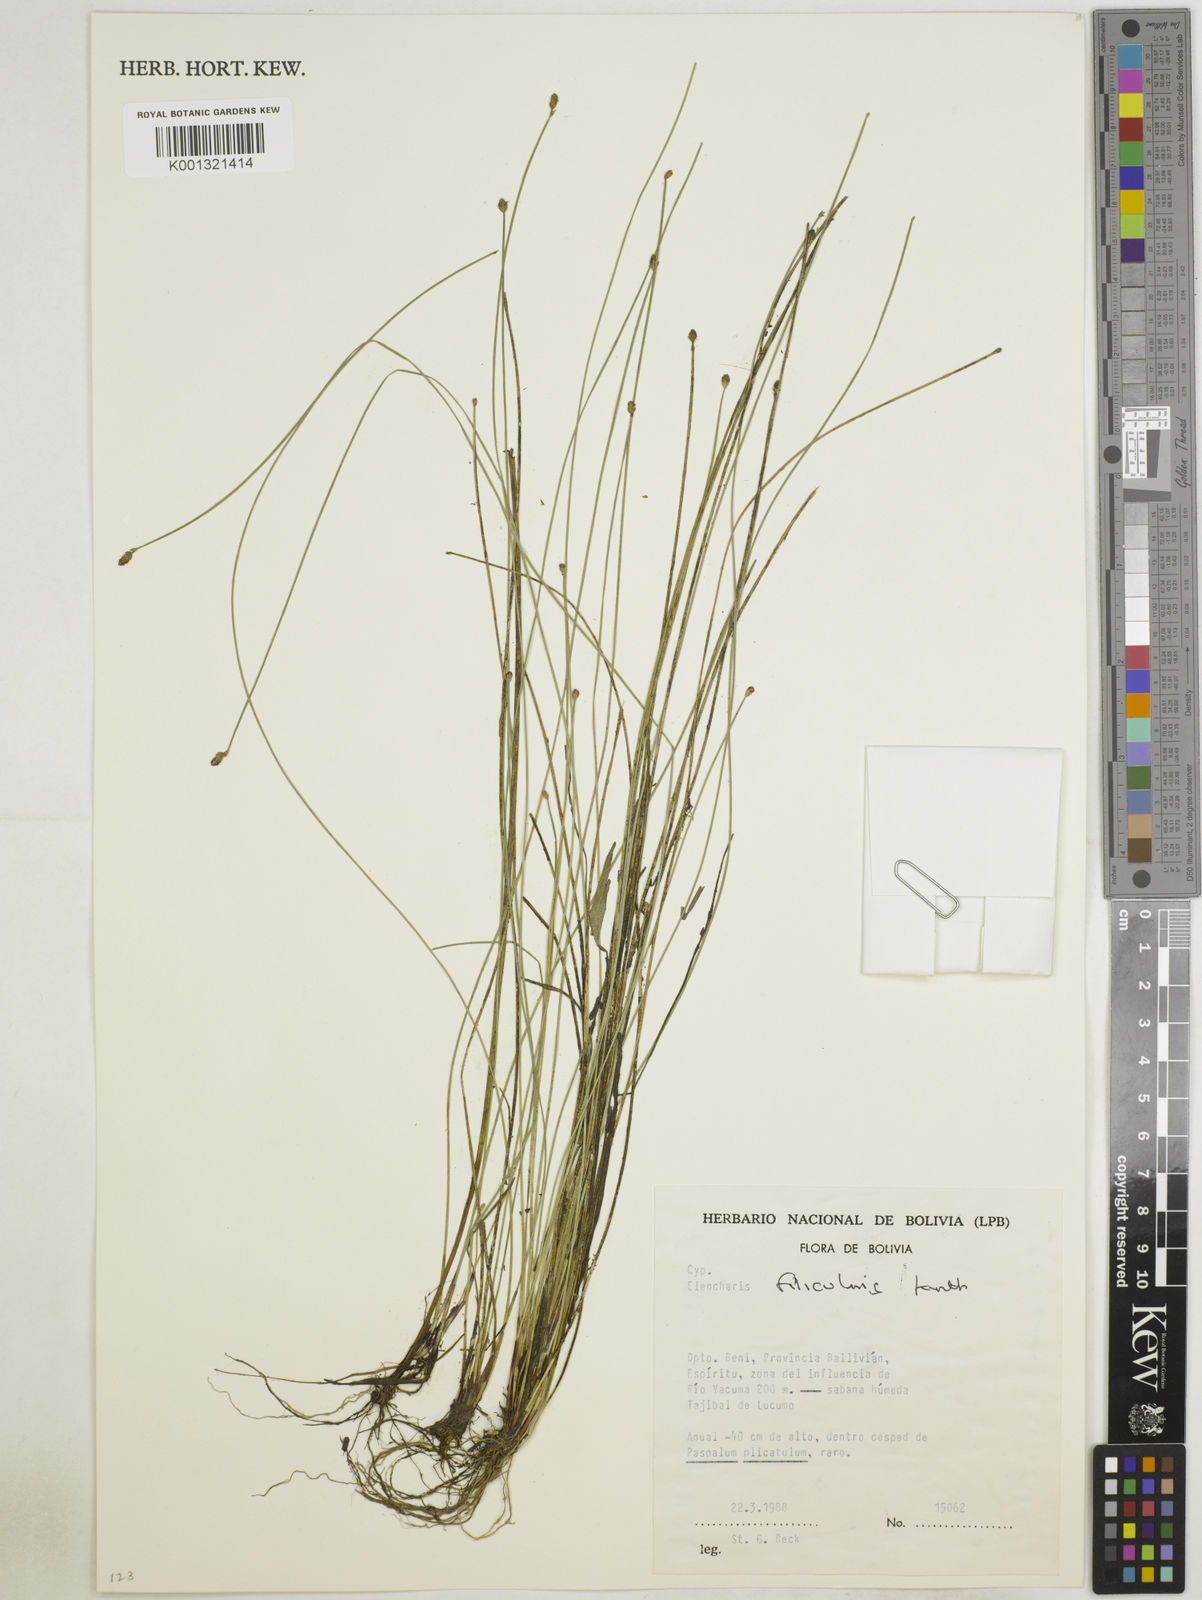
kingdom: Plantae
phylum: Tracheophyta
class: Liliopsida
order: Poales
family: Cyperaceae
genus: Eleocharis
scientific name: Eleocharis filiculmis
